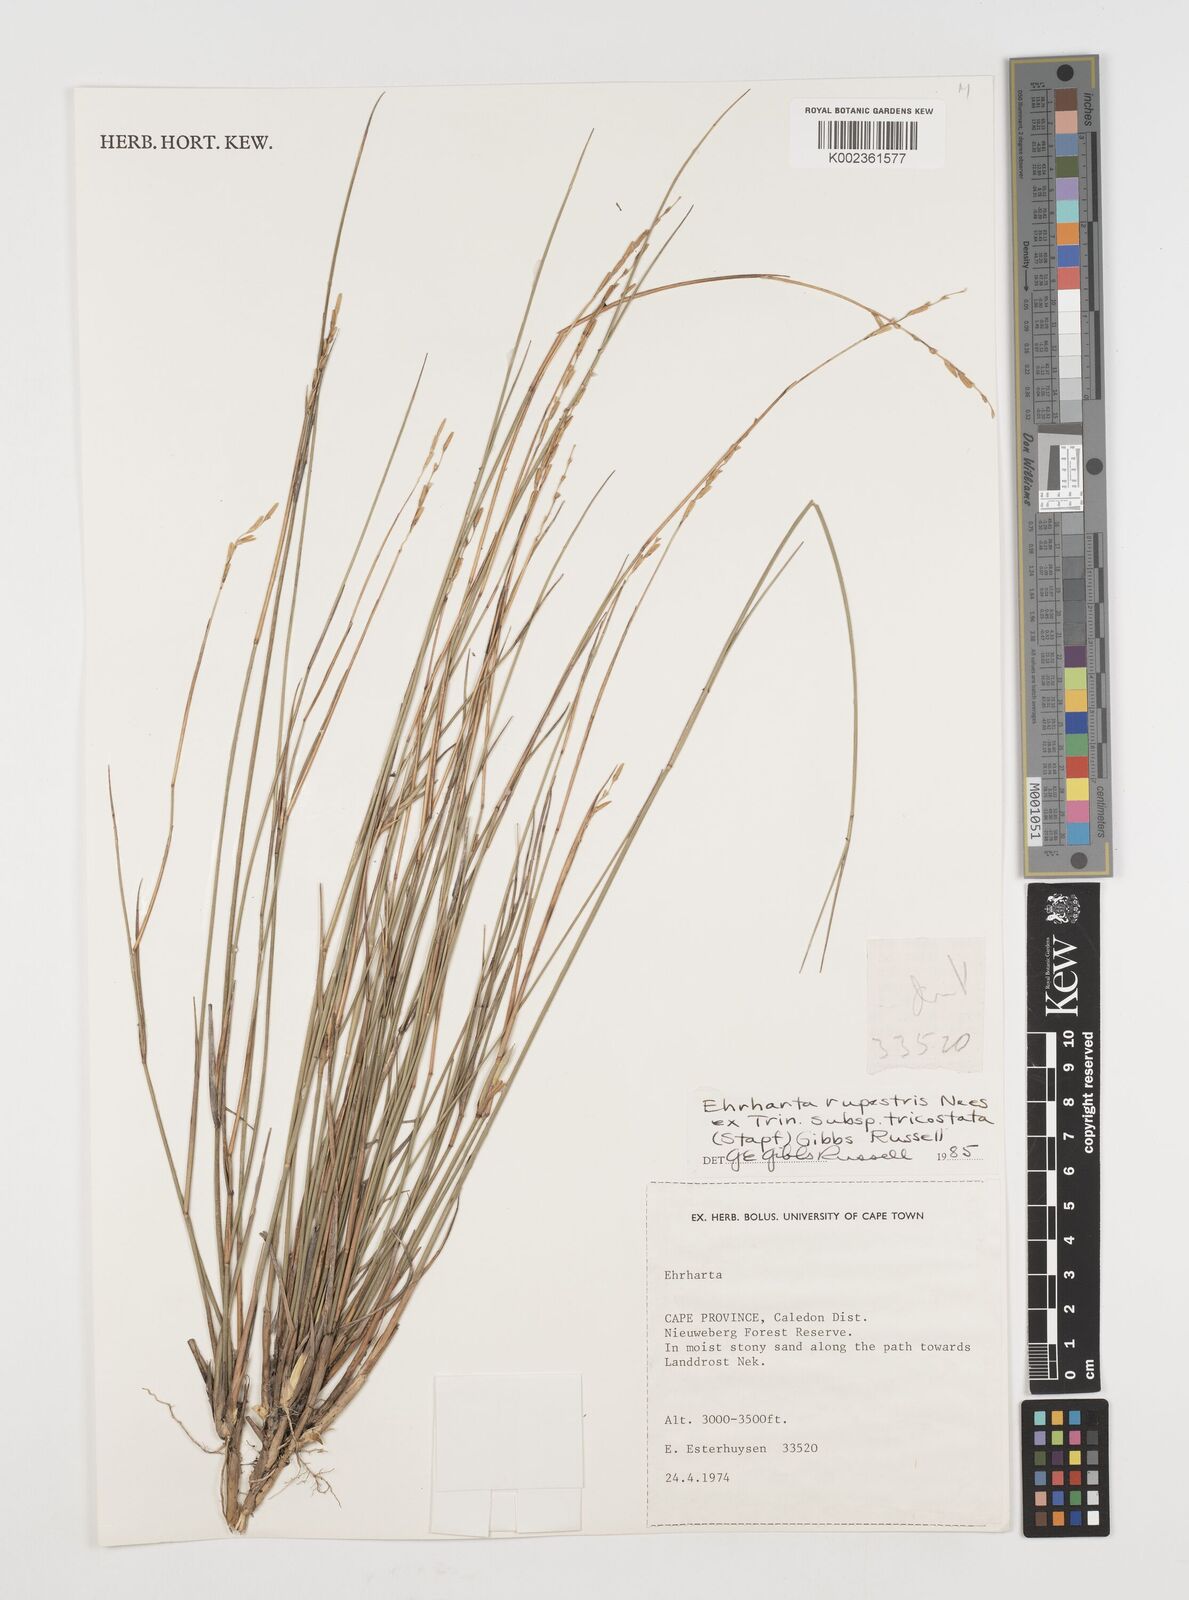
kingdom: Plantae
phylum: Tracheophyta
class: Liliopsida
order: Poales
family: Poaceae
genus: Ehrharta
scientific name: Ehrharta rupestris
